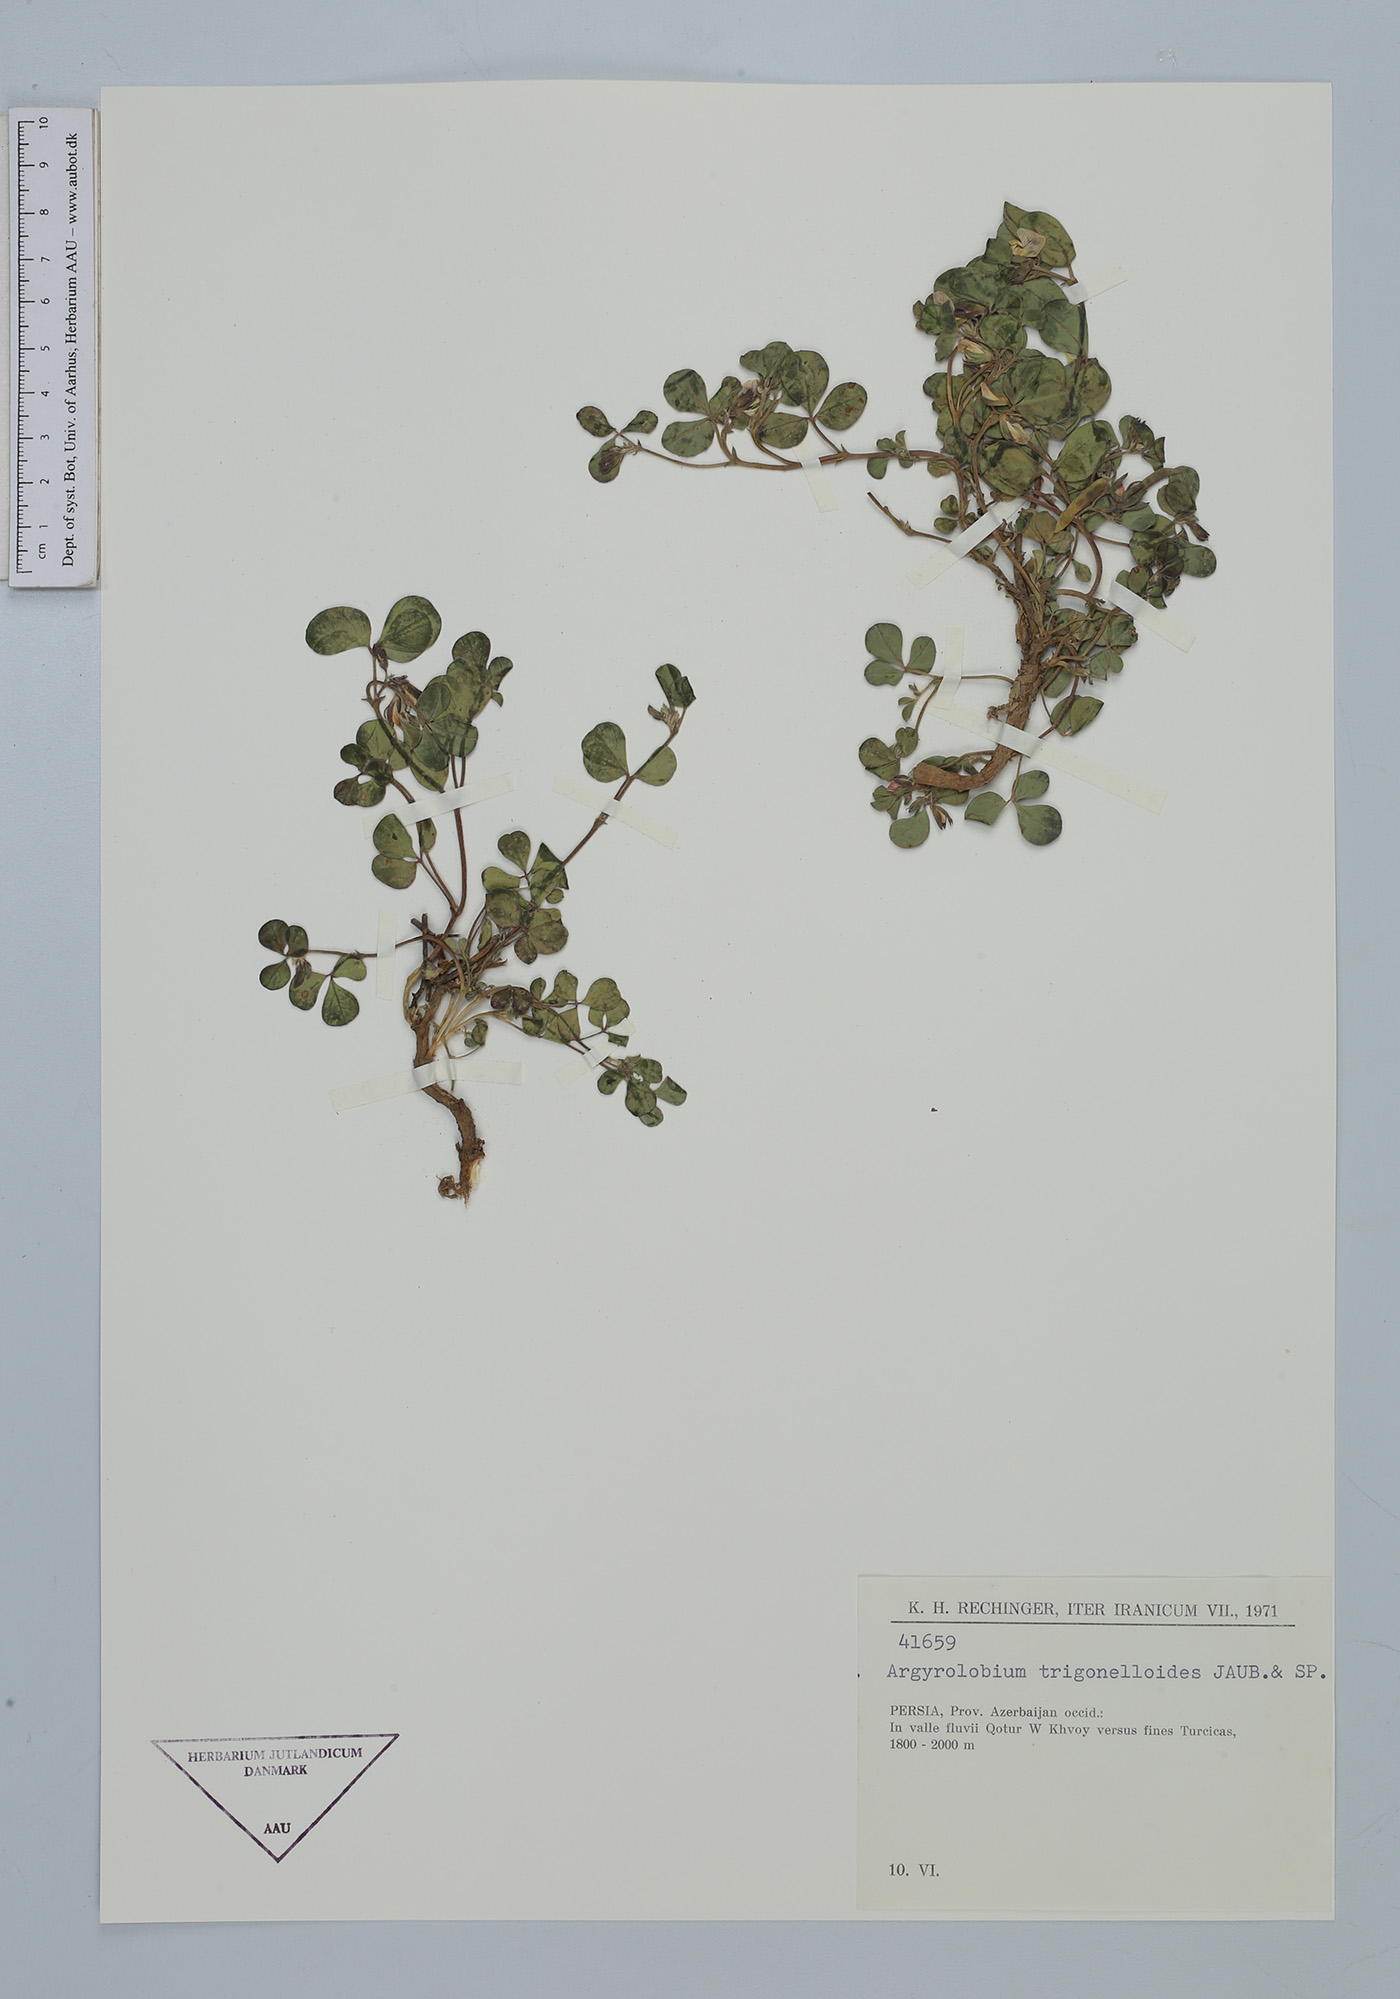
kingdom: Plantae
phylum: Tracheophyta
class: Magnoliopsida
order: Fabales
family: Fabaceae
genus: Argyrolobium
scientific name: Argyrolobium roseum
